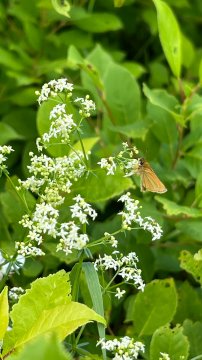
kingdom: Animalia
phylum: Arthropoda
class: Insecta
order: Lepidoptera
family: Hesperiidae
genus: Thymelicus
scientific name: Thymelicus lineola
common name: European Skipper
